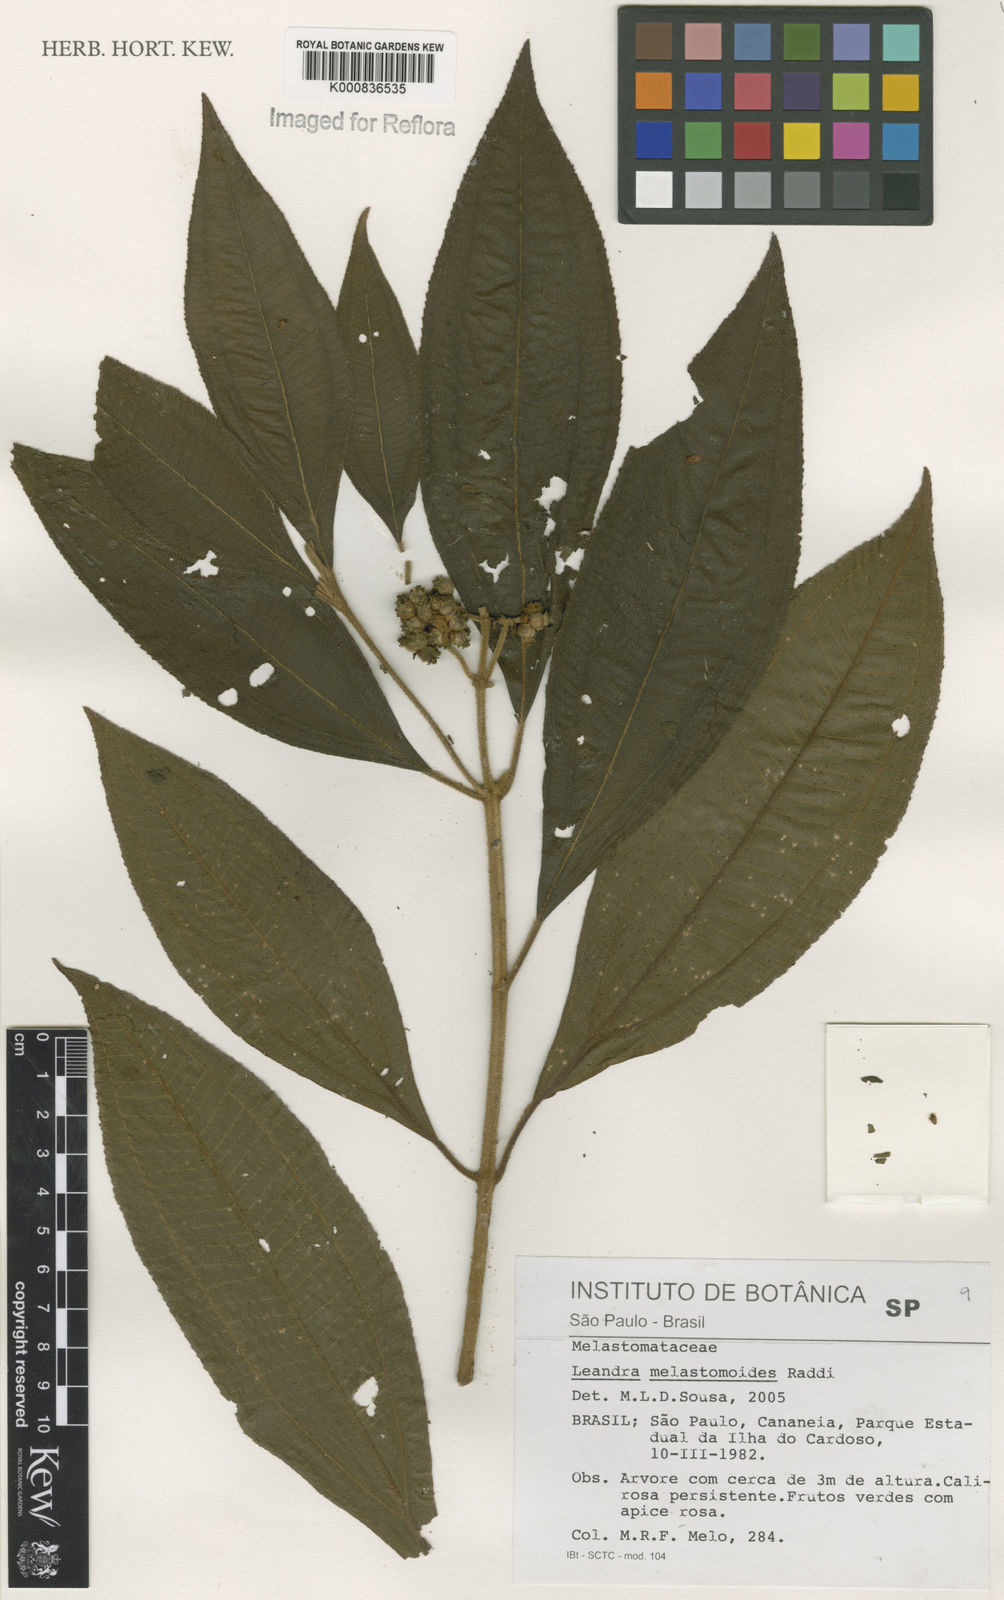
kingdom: Plantae
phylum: Tracheophyta
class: Magnoliopsida
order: Myrtales
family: Melastomataceae
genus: Miconia
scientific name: Miconia melastomoides
